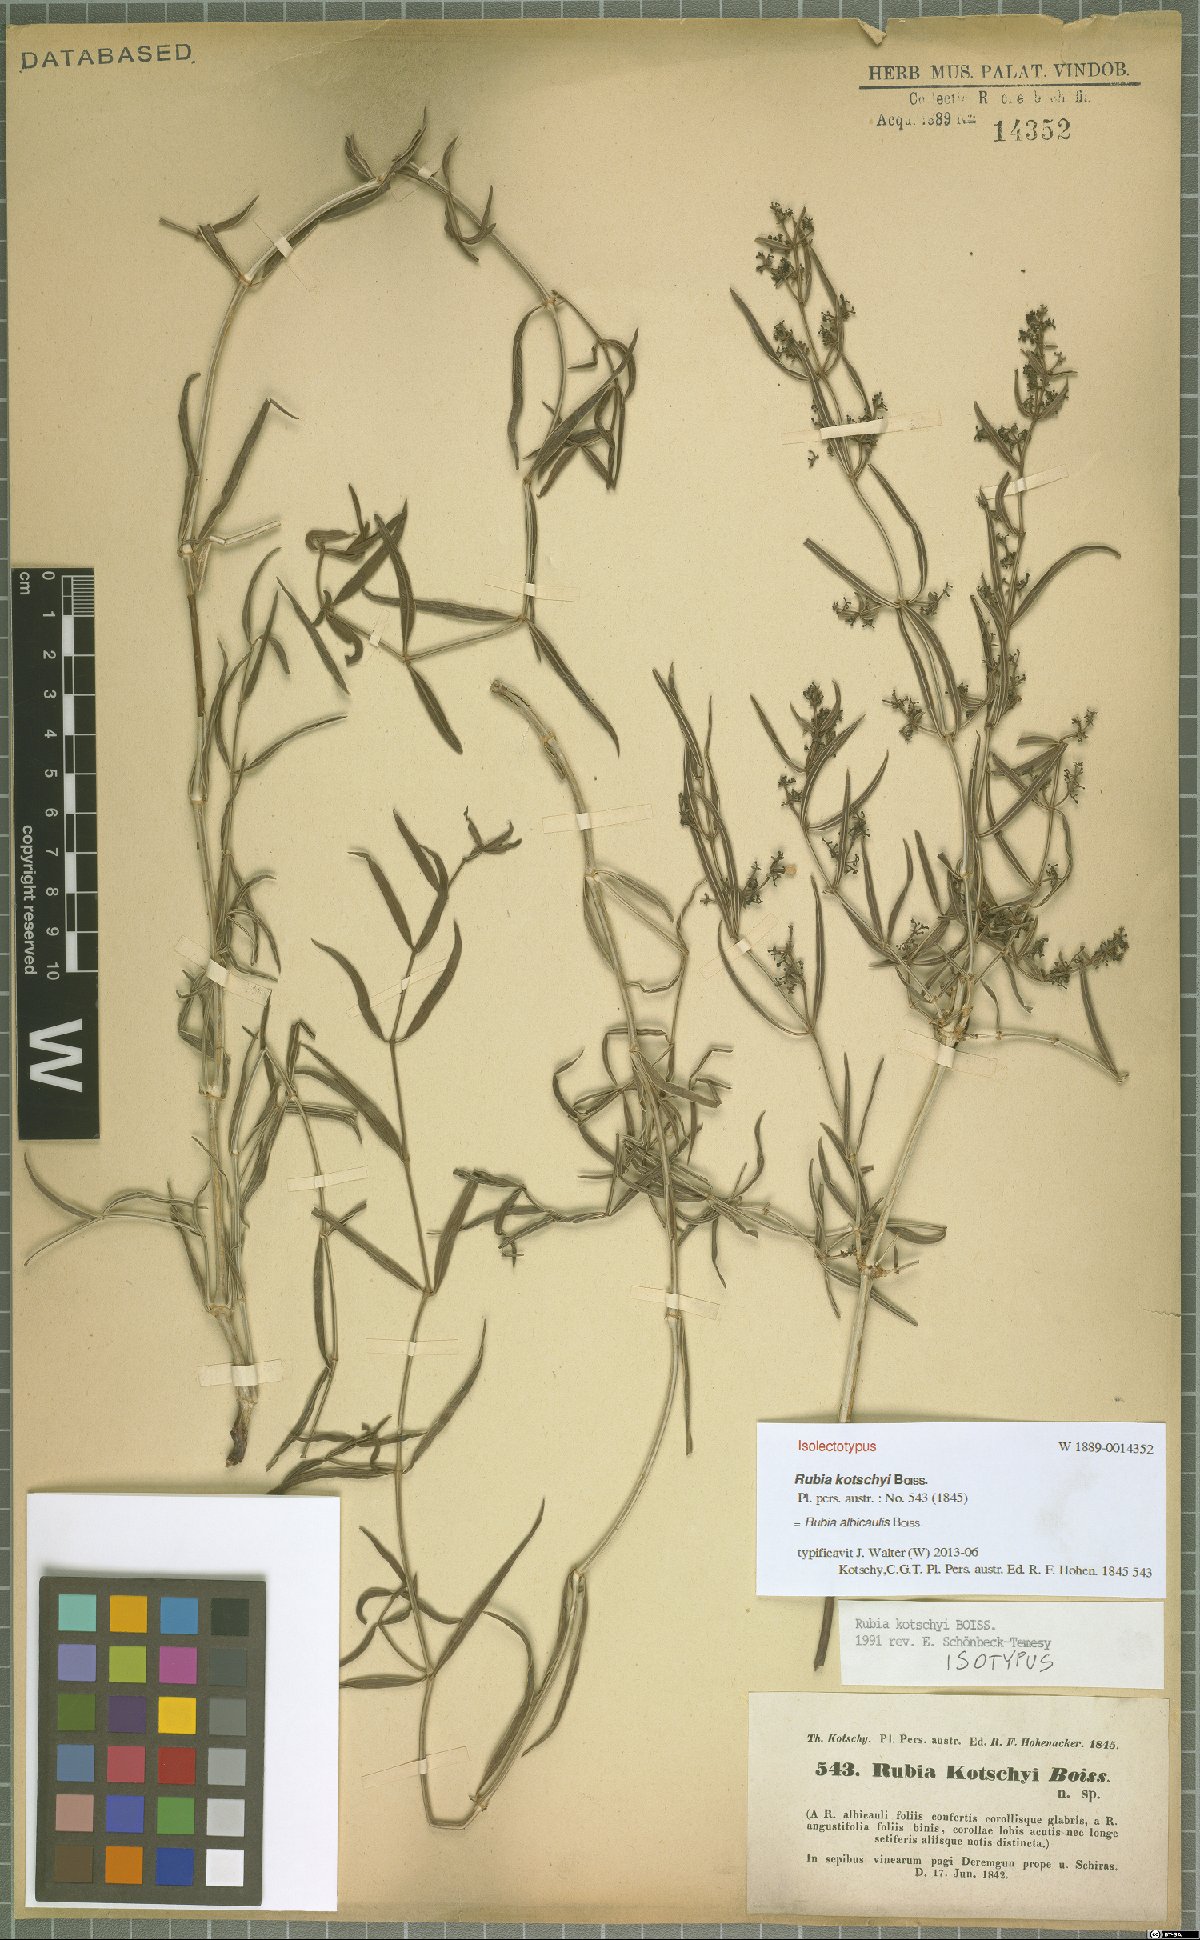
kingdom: Plantae
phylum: Tracheophyta
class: Magnoliopsida
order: Gentianales
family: Rubiaceae
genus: Rubia
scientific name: Rubia albicaulis
